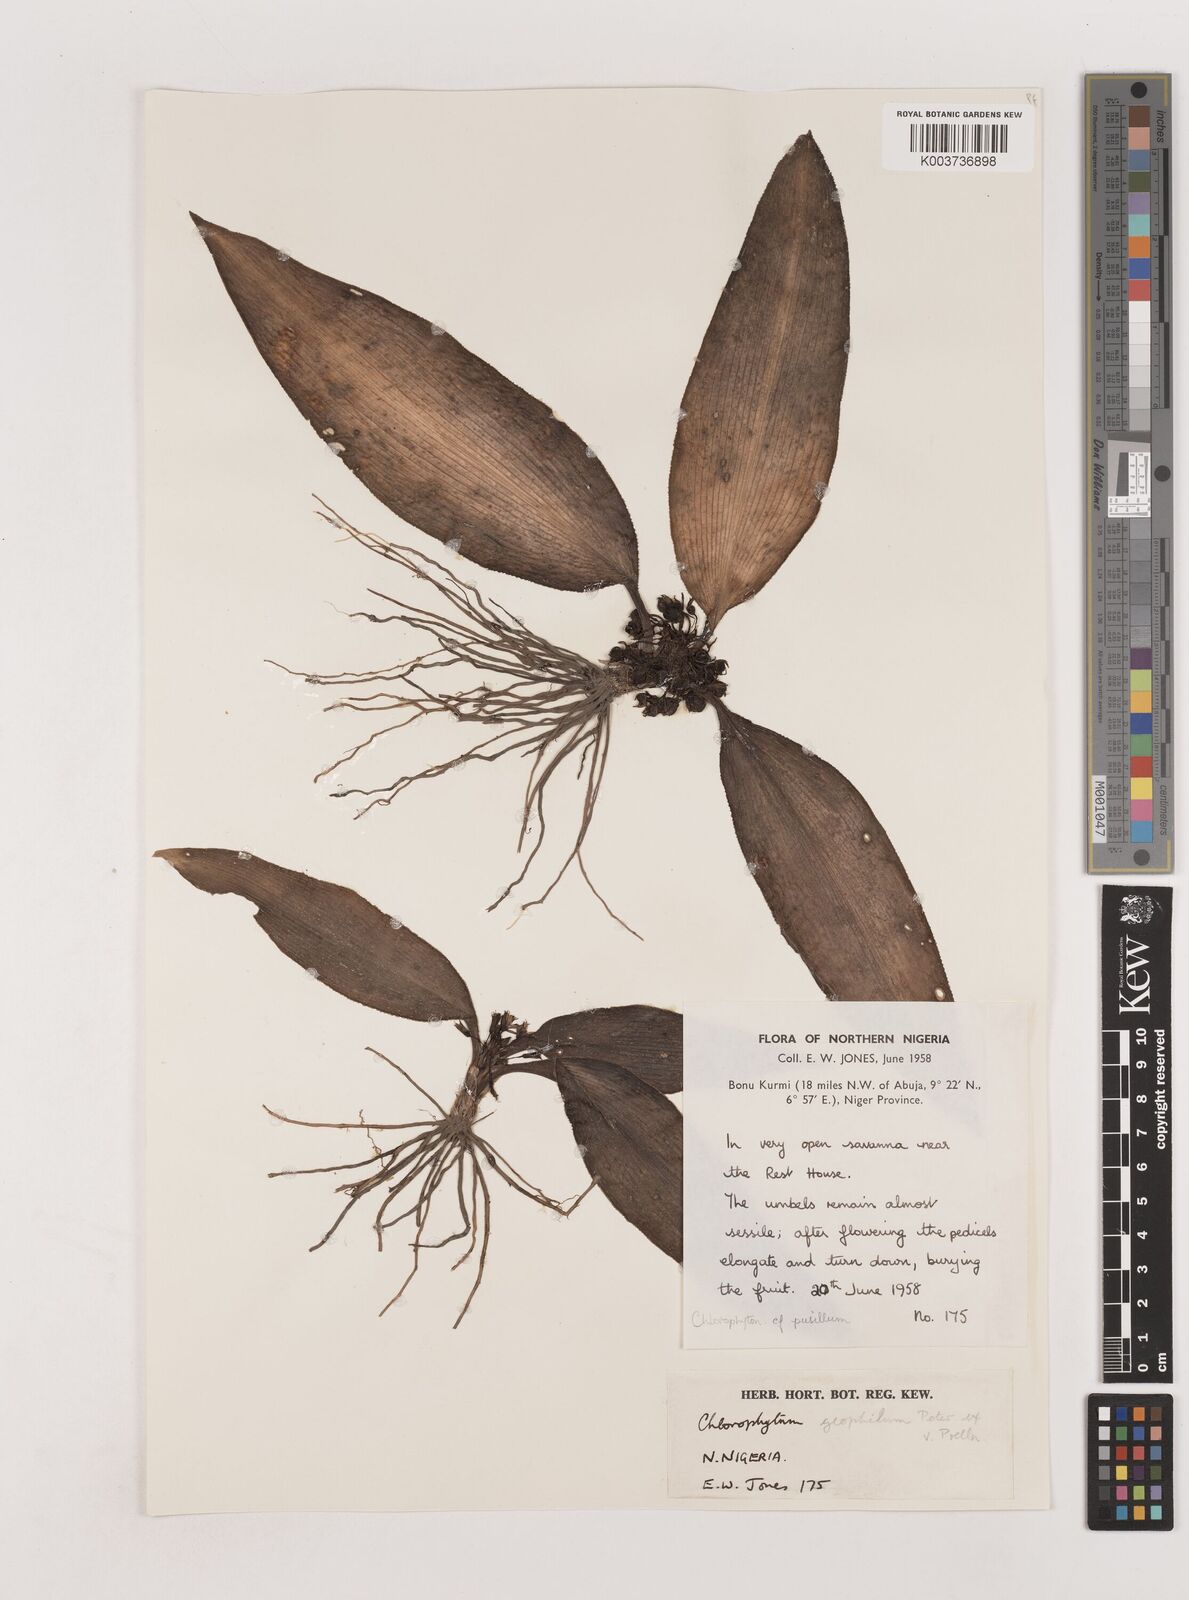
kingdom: Plantae
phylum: Tracheophyta
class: Liliopsida
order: Asparagales
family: Asparagaceae
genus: Chlorophytum
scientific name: Chlorophytum geophilum
